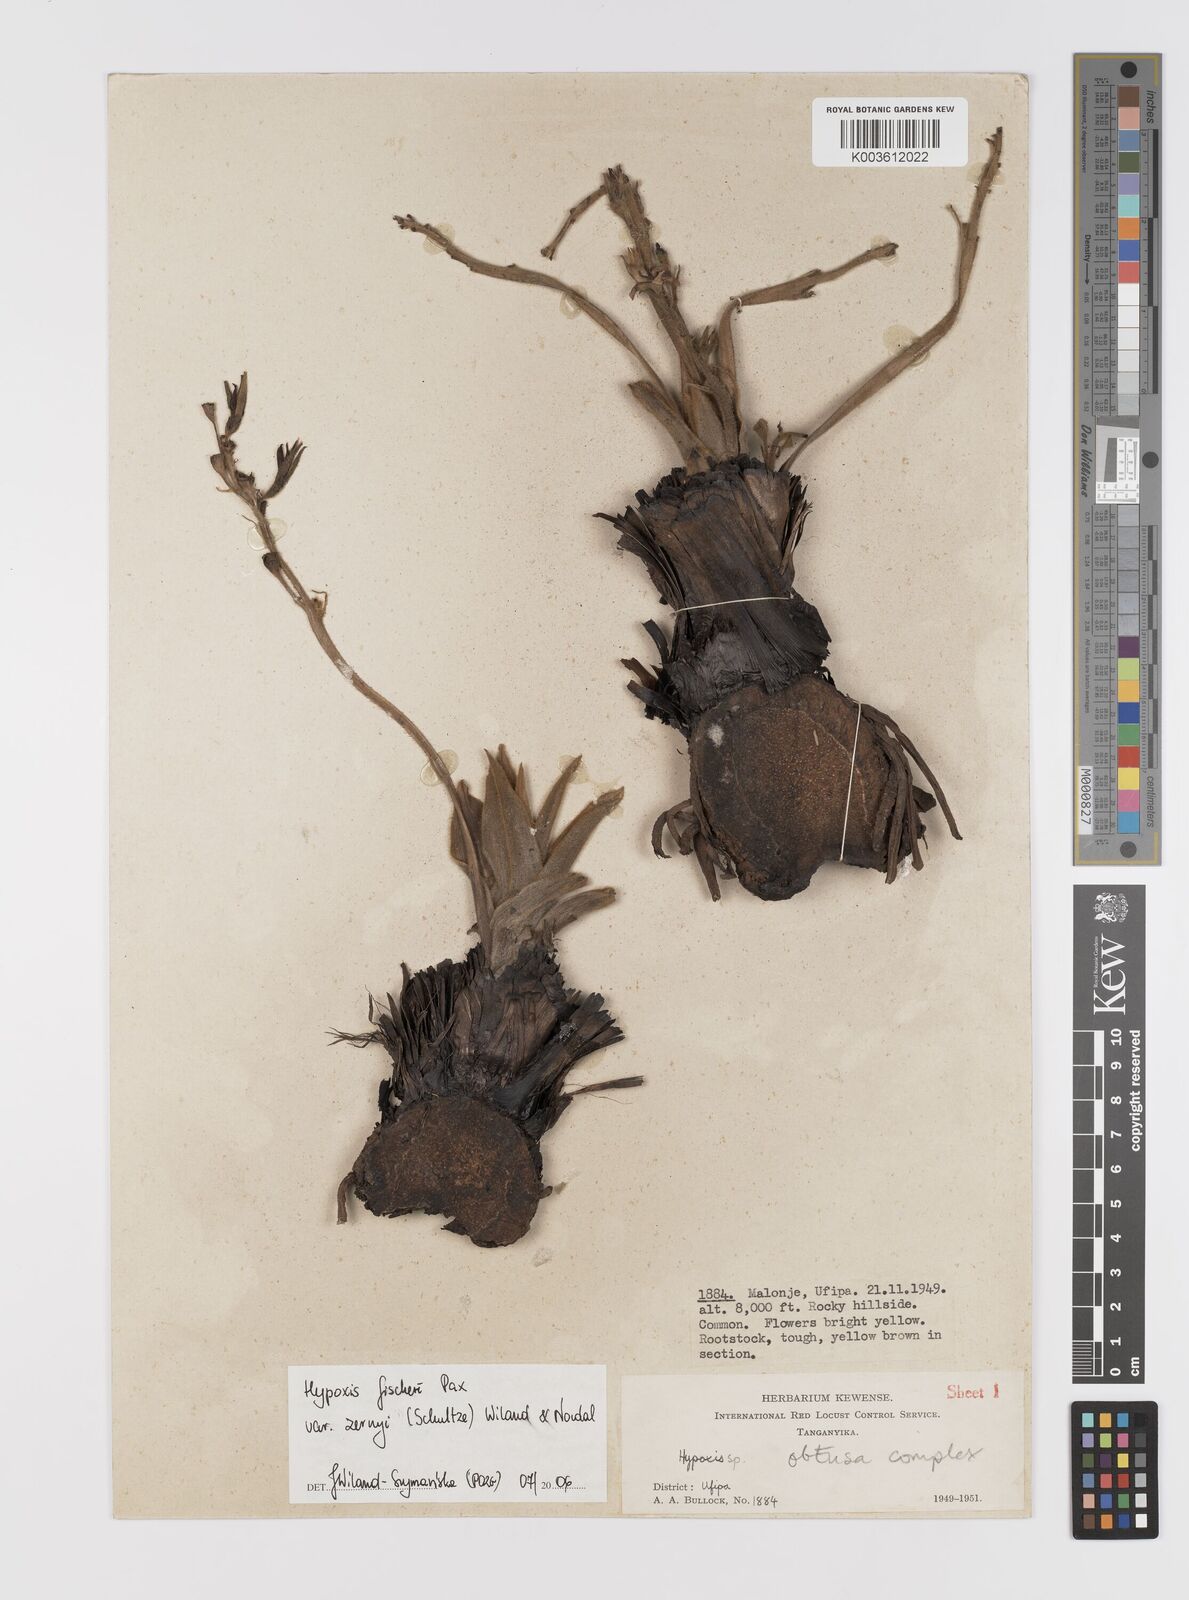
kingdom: Plantae
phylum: Tracheophyta
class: Liliopsida
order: Asparagales
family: Hypoxidaceae
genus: Hypoxis
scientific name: Hypoxis fischeri
